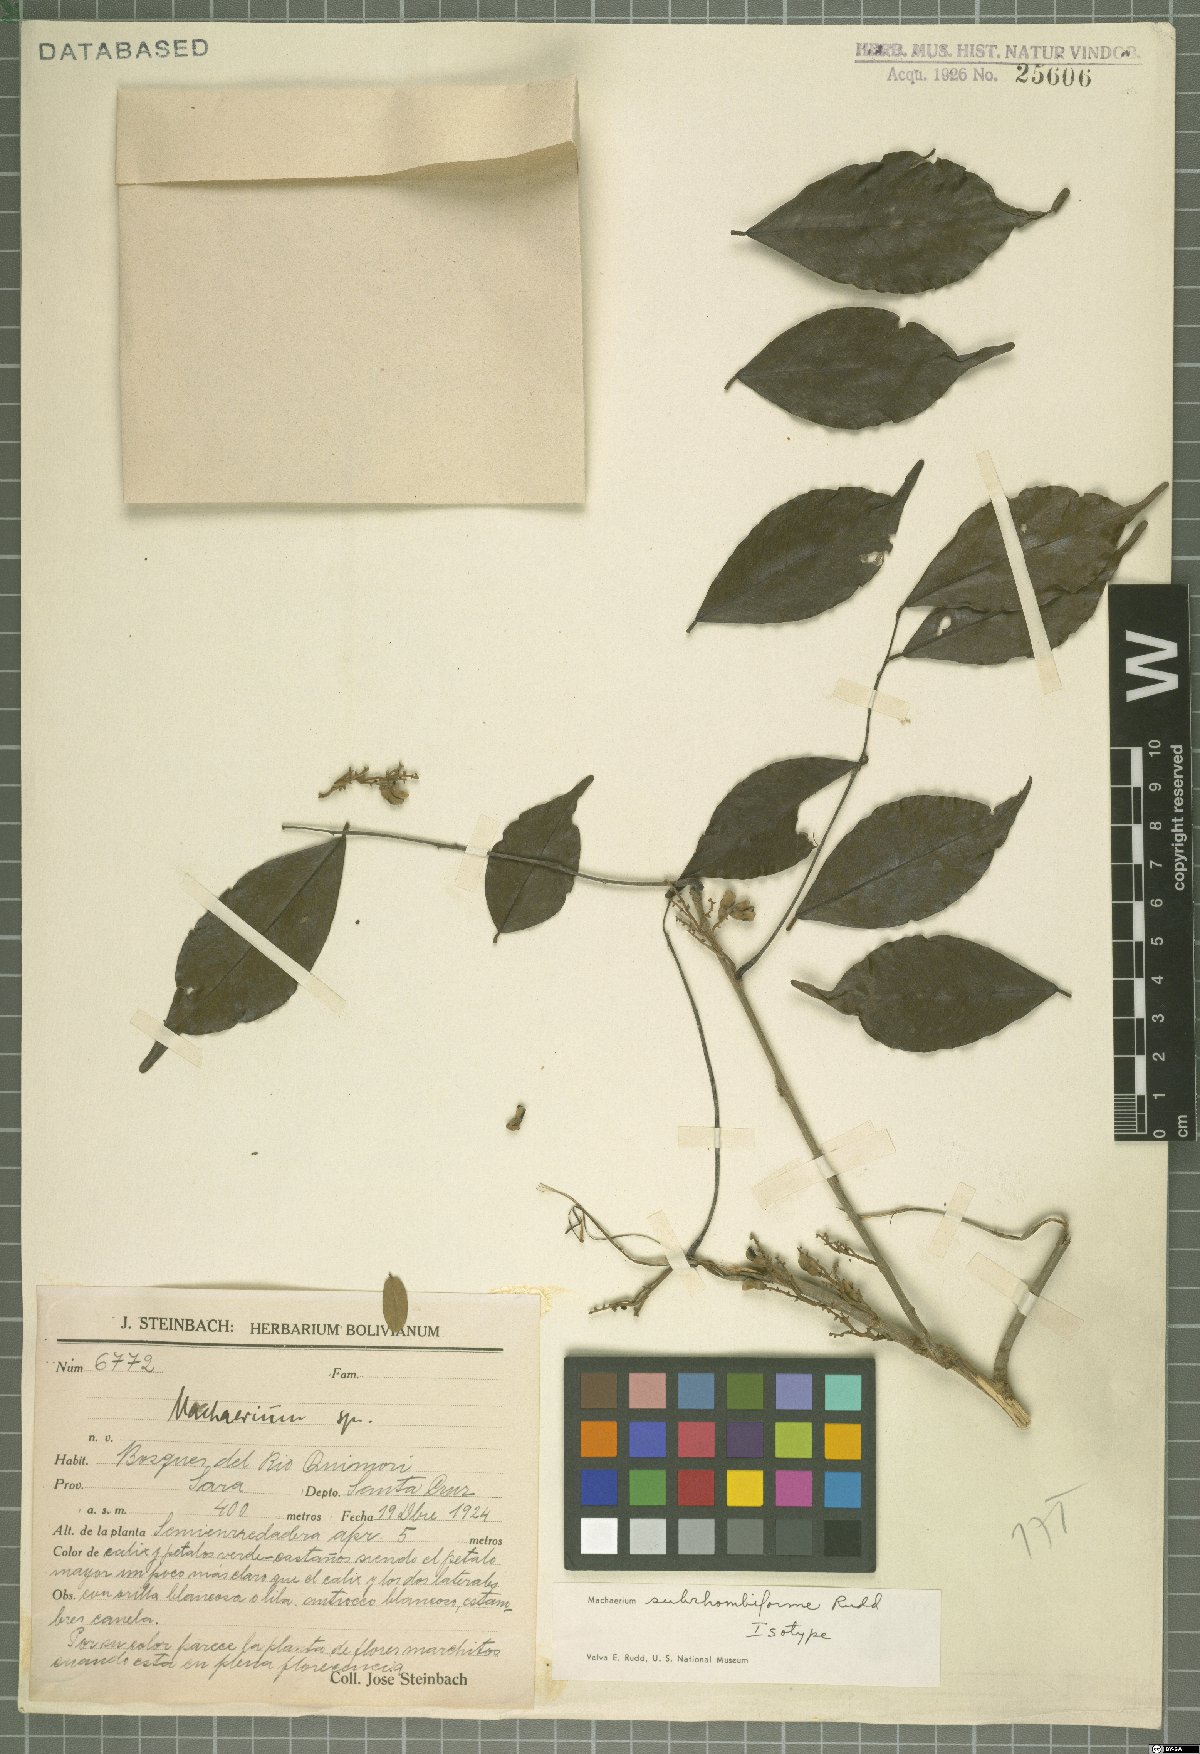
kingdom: Plantae
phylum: Tracheophyta
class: Magnoliopsida
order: Fabales
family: Fabaceae
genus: Machaerium
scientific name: Machaerium subrhombiforme
